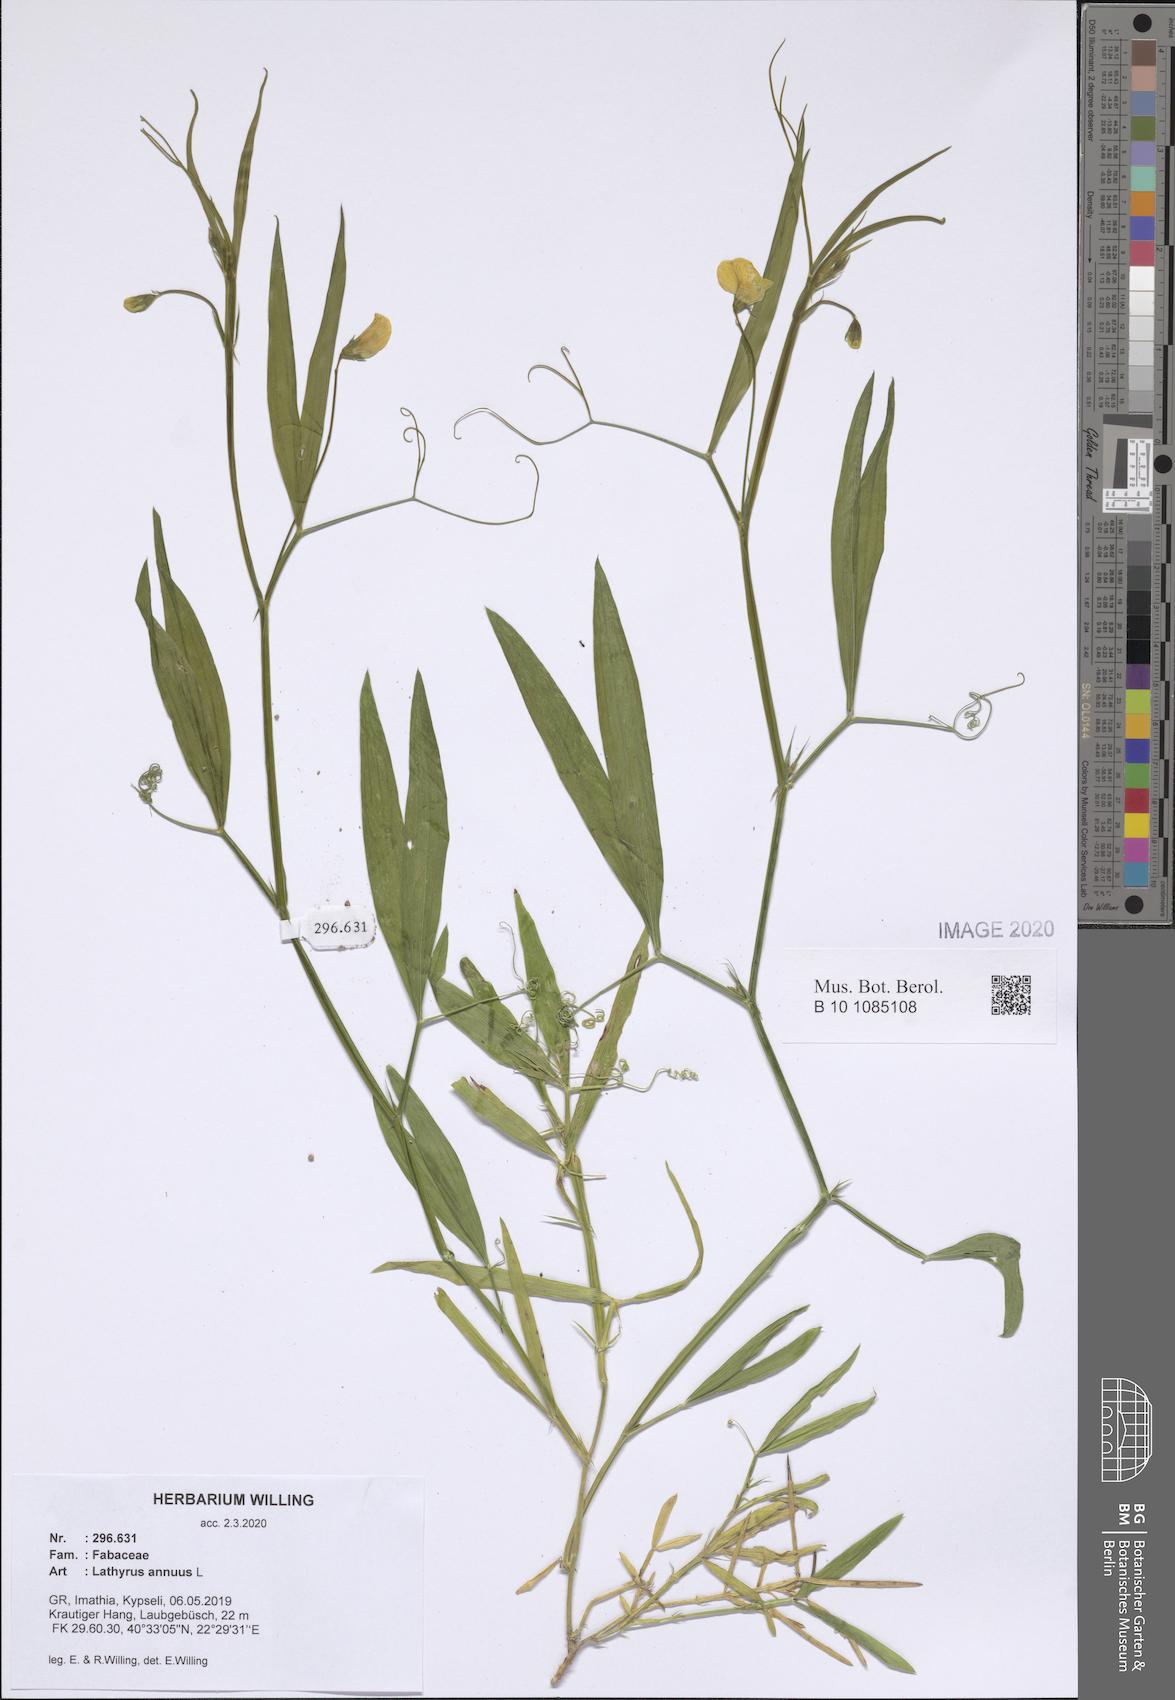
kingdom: Plantae
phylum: Tracheophyta
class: Magnoliopsida
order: Fabales
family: Fabaceae
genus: Lathyrus
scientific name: Lathyrus annuus
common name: Fodder pea
